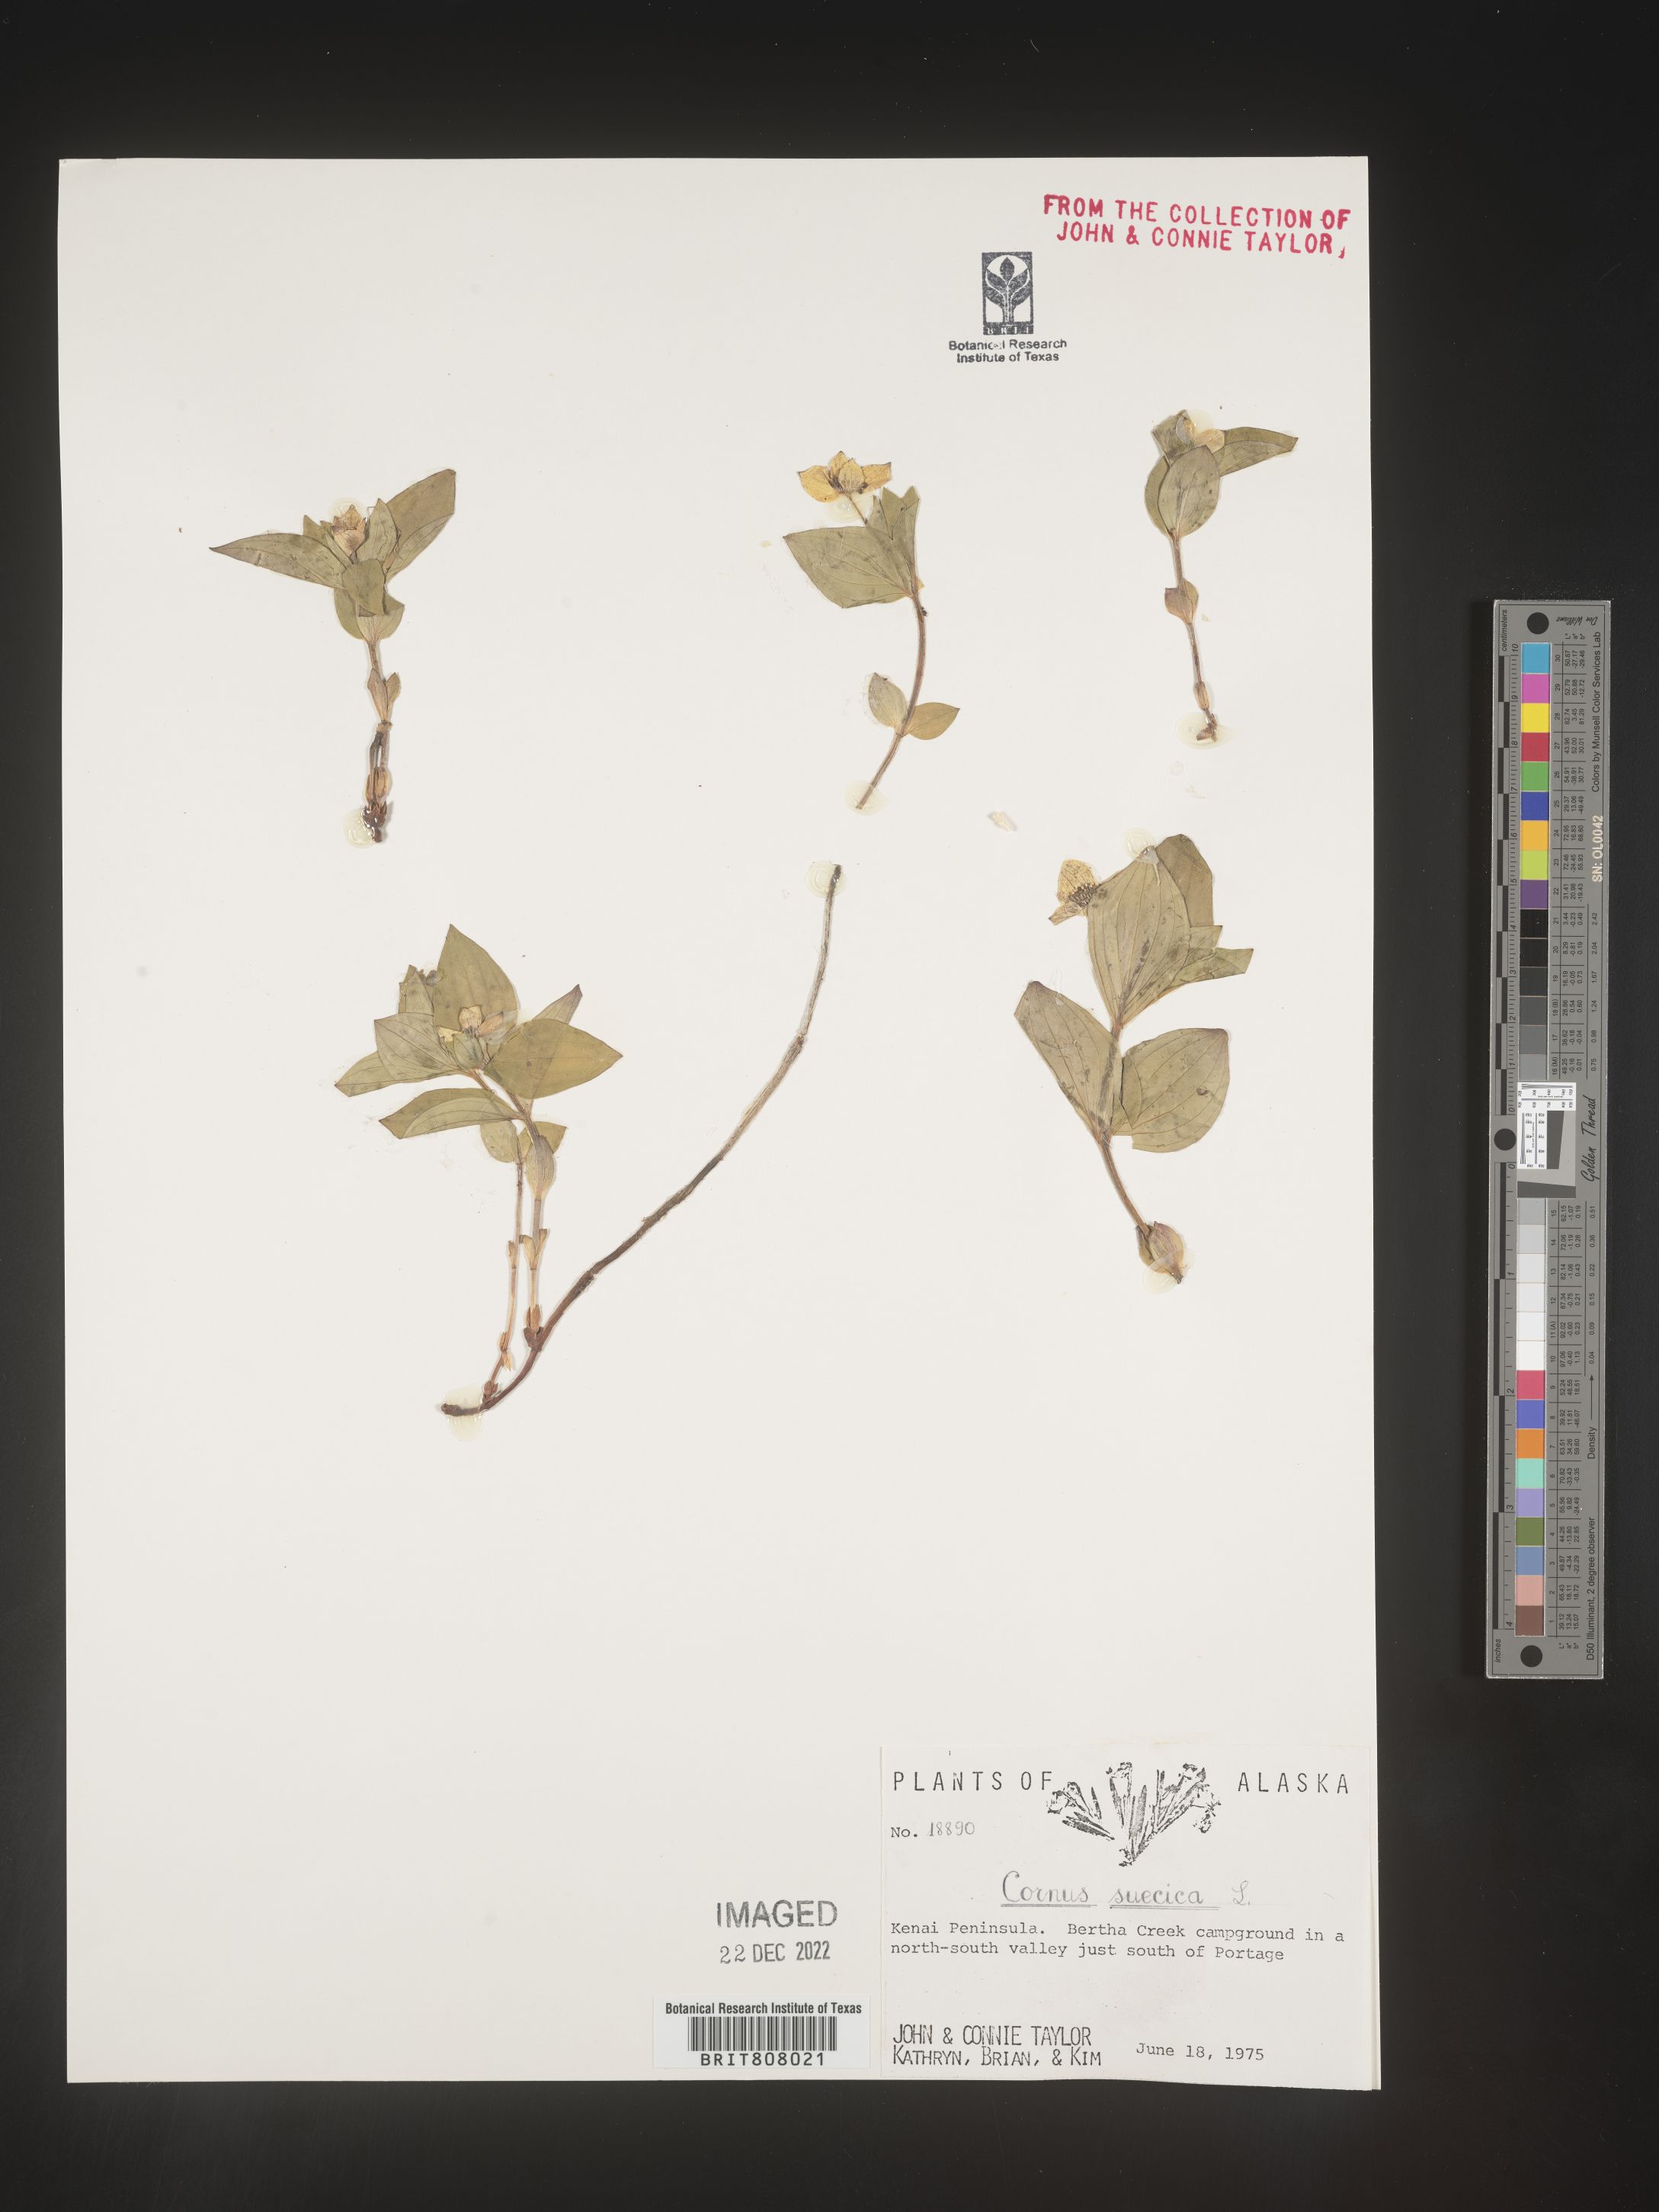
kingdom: Plantae
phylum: Tracheophyta
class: Magnoliopsida
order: Cornales
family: Cornaceae
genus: Cornus
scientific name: Cornus
